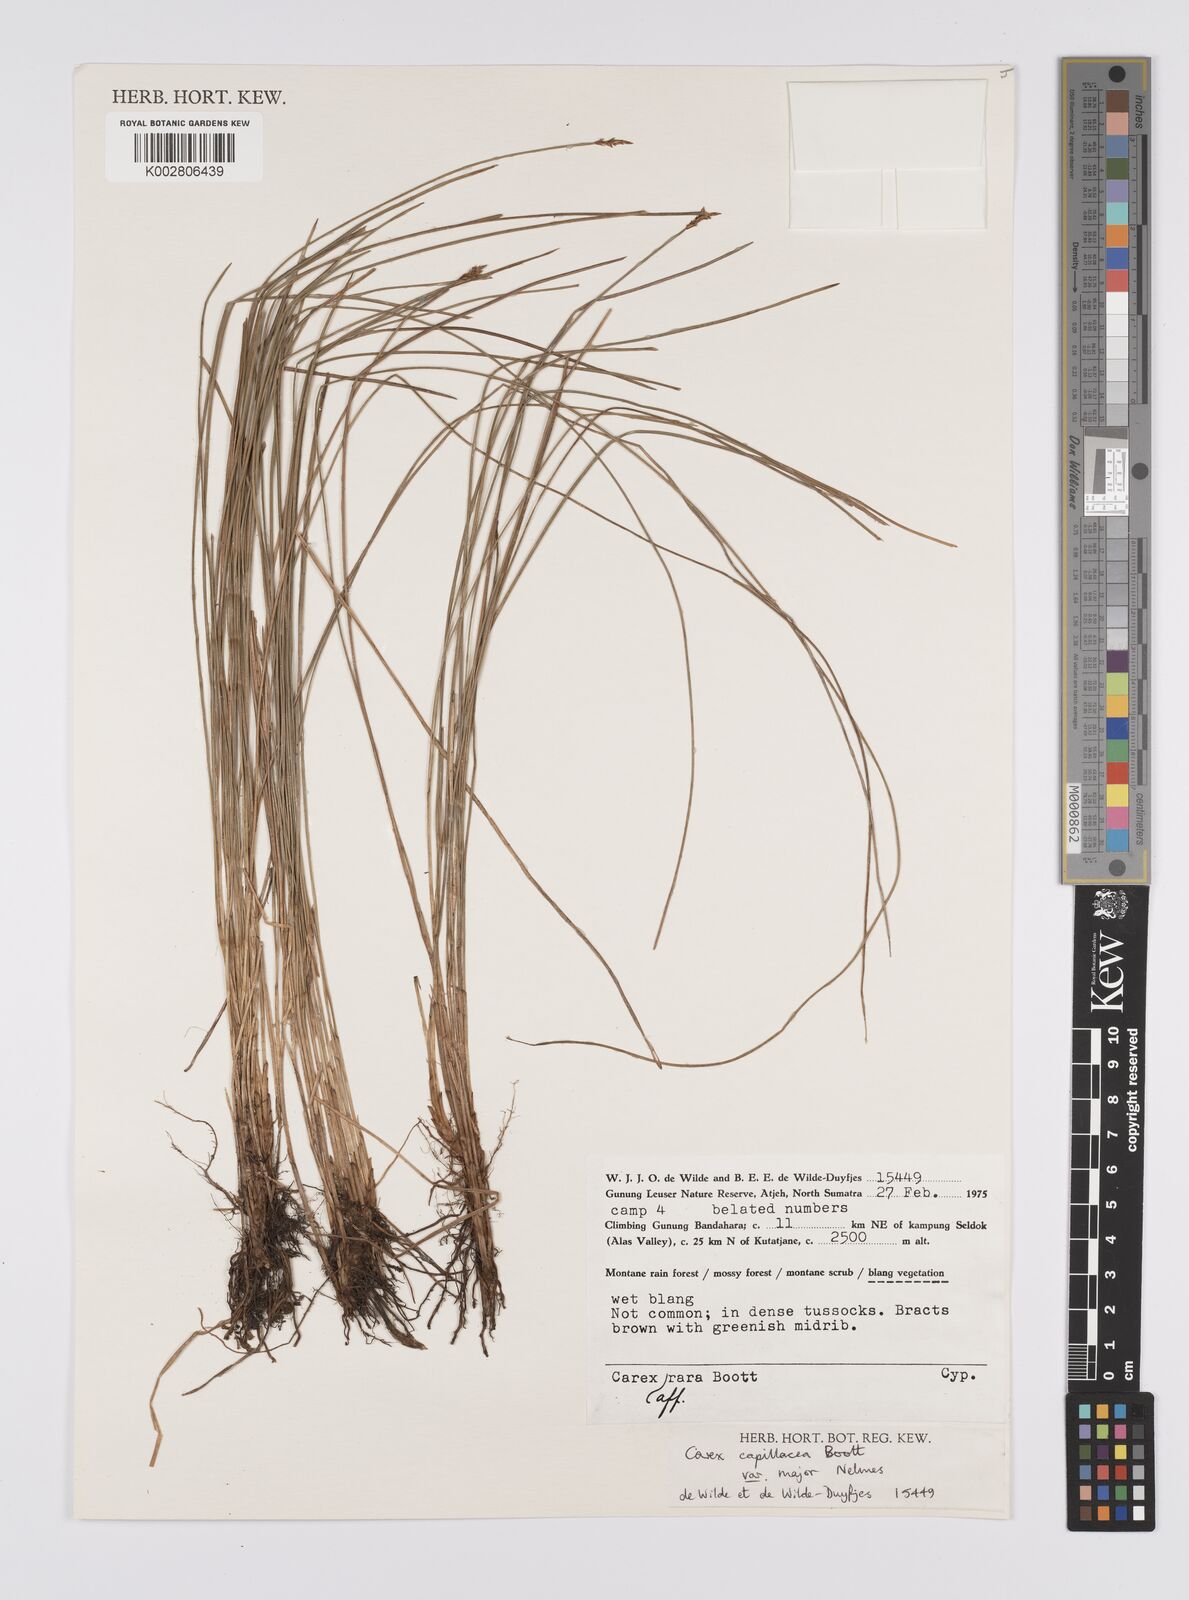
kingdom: Plantae
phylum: Tracheophyta
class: Liliopsida
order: Poales
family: Cyperaceae
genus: Carex
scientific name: Carex capillacea
